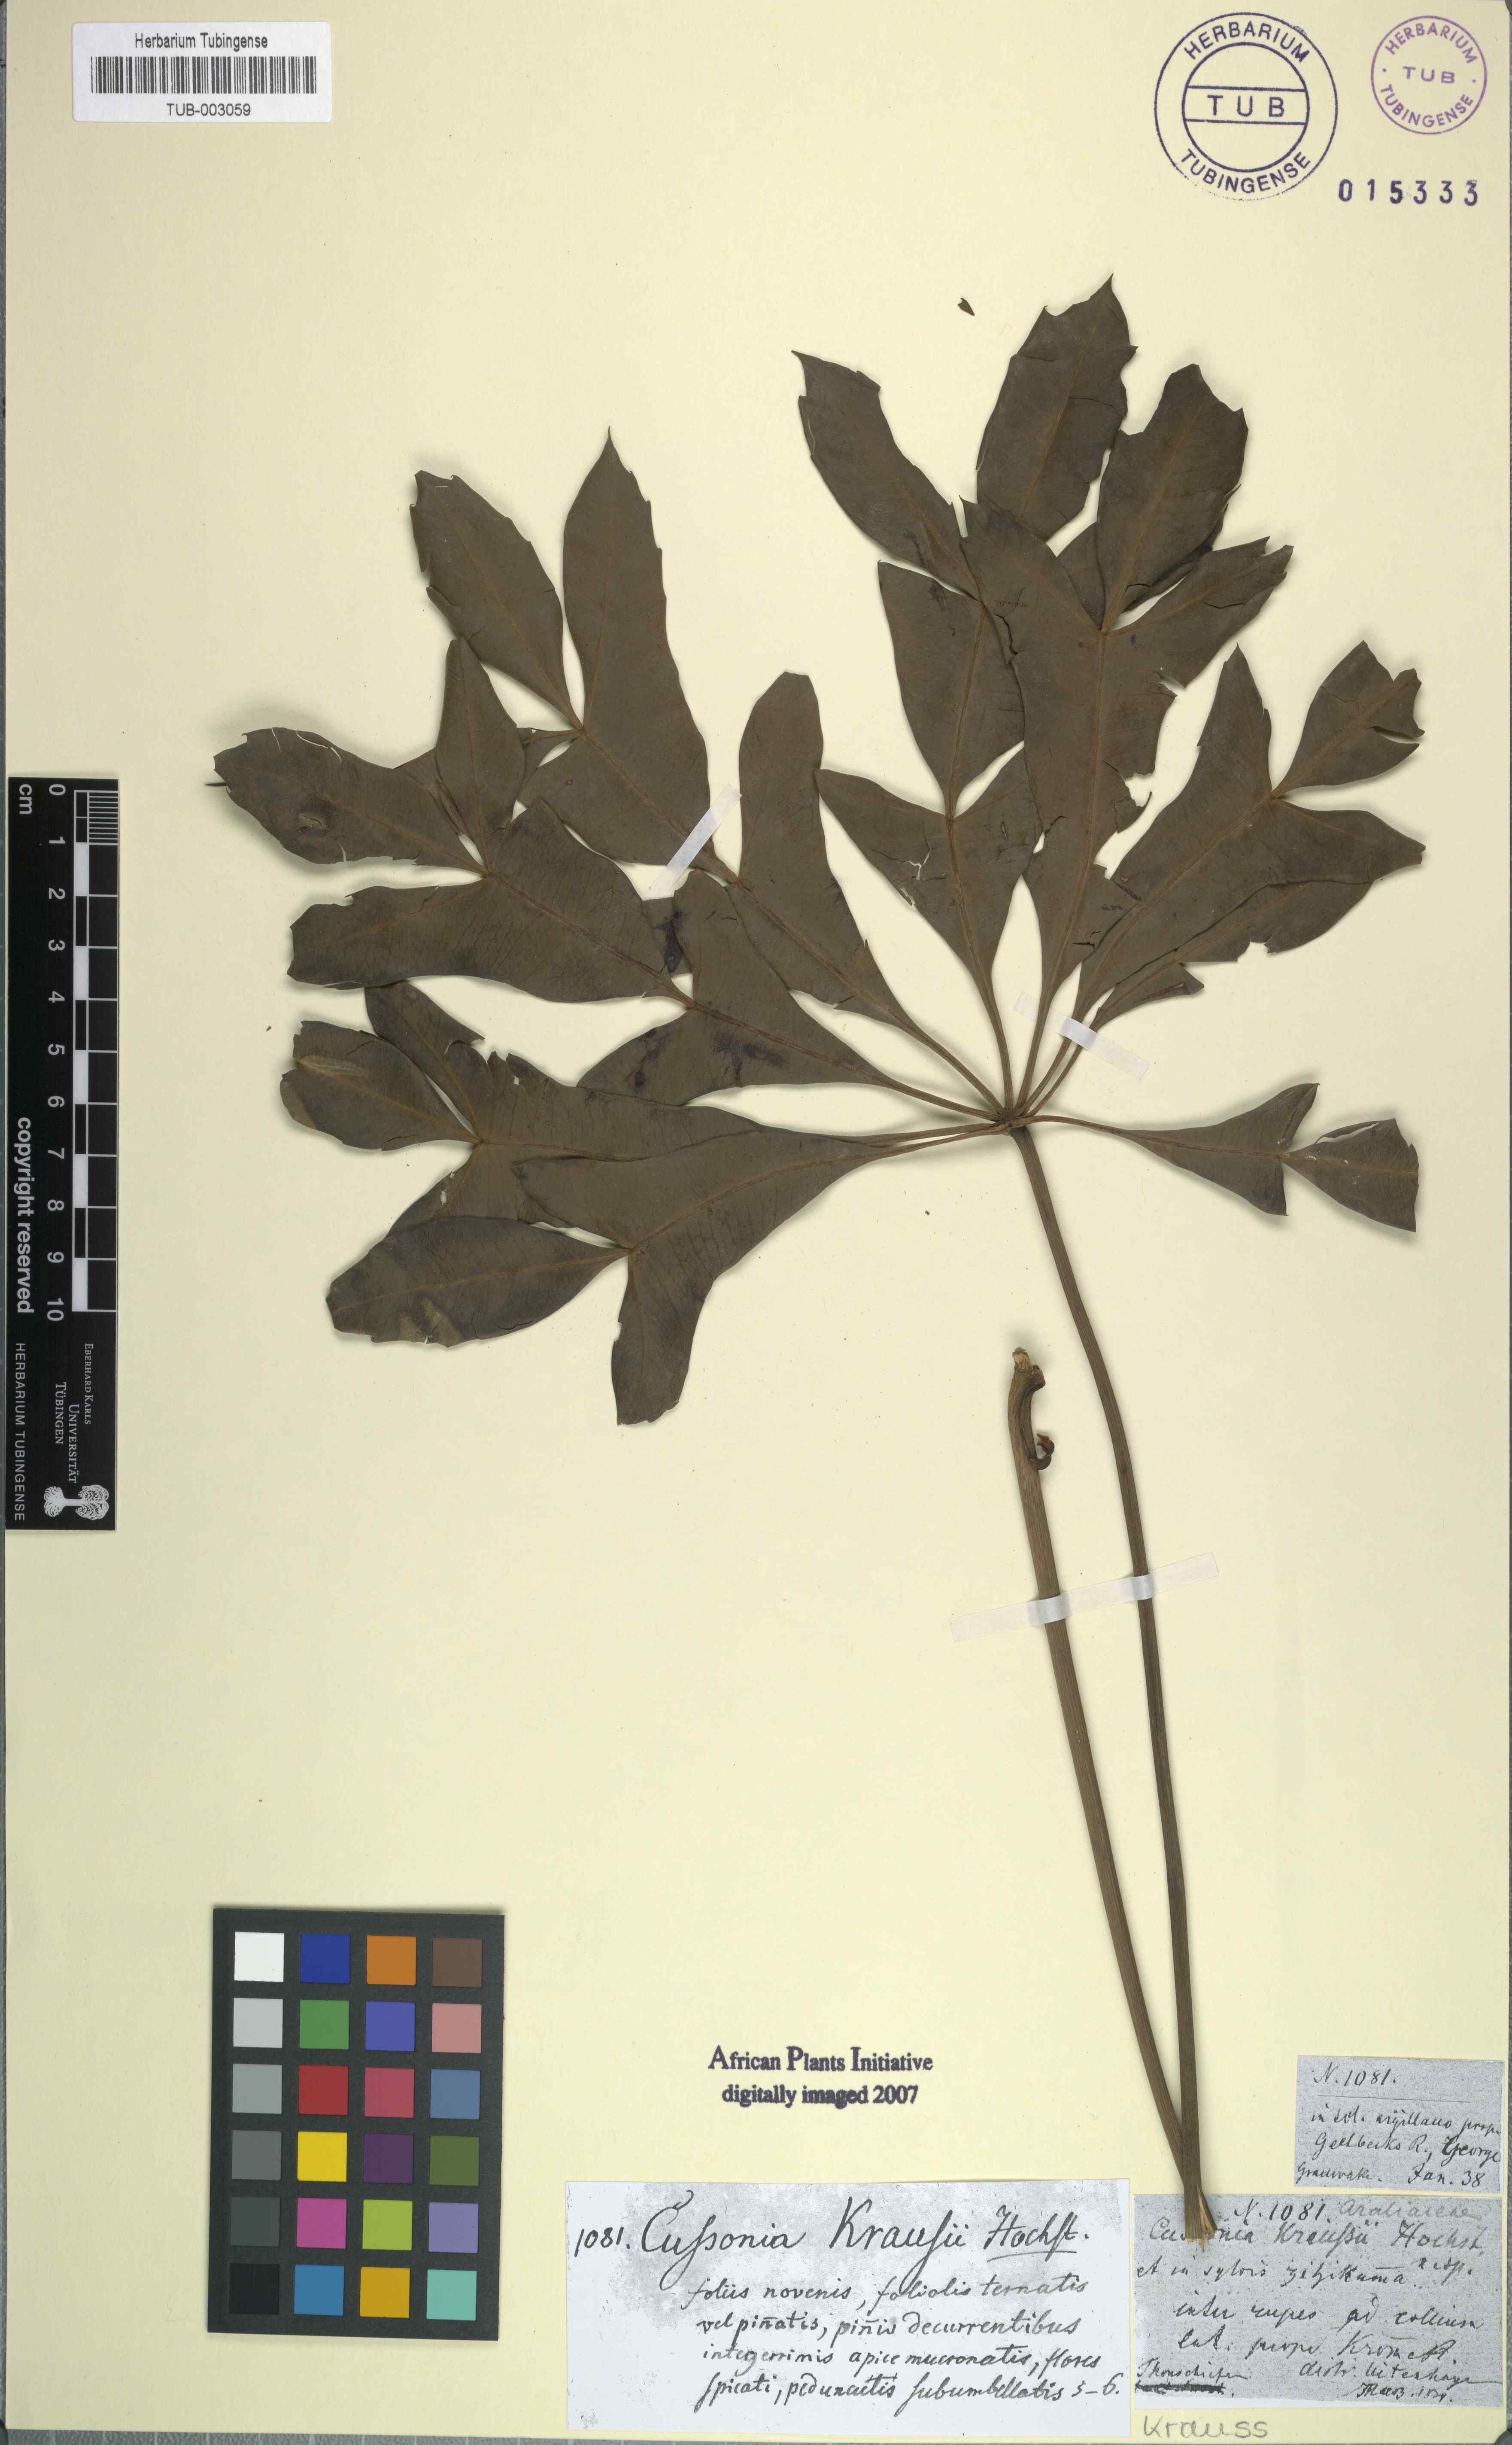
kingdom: Plantae
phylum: Tracheophyta
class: Magnoliopsida
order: Apiales
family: Araliaceae
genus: Cussonia
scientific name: Cussonia spicata
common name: Common cabbagetree
